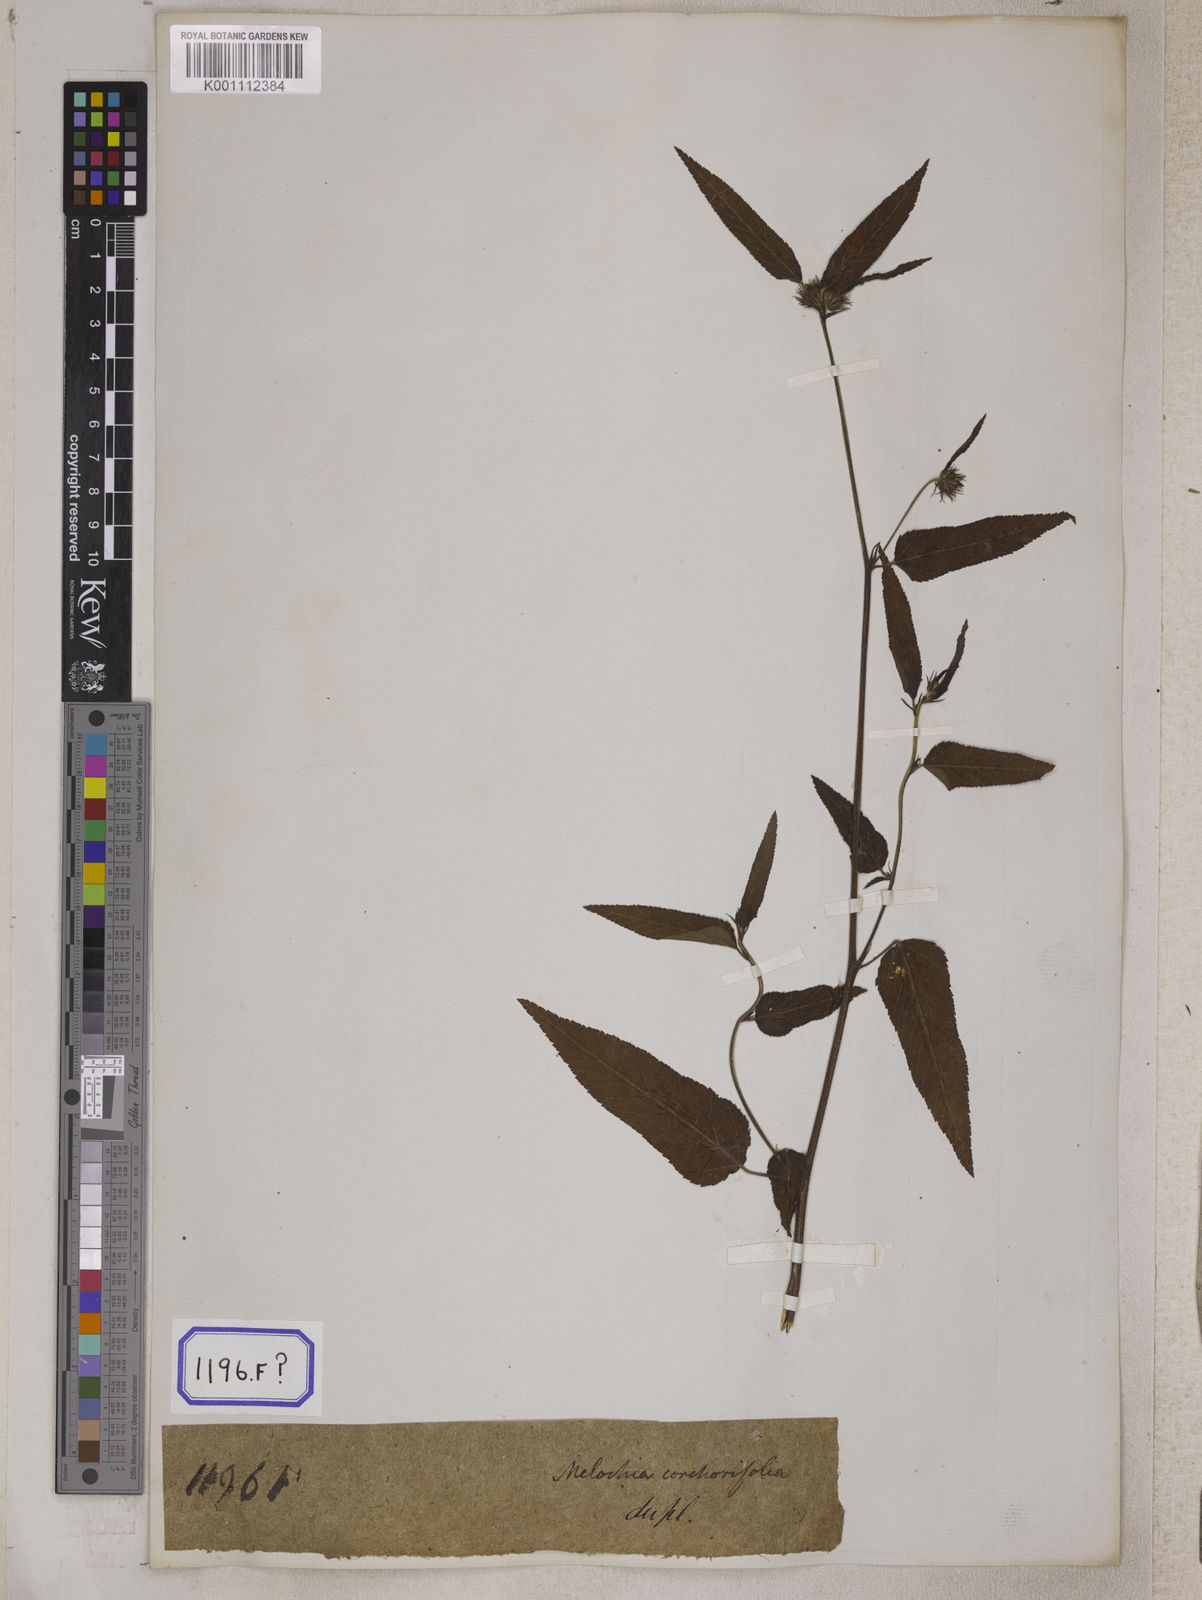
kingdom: Plantae
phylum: Tracheophyta
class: Magnoliopsida
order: Malvales
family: Malvaceae
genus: Melochia
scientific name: Melochia corchorifolia
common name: Chocolateweed
